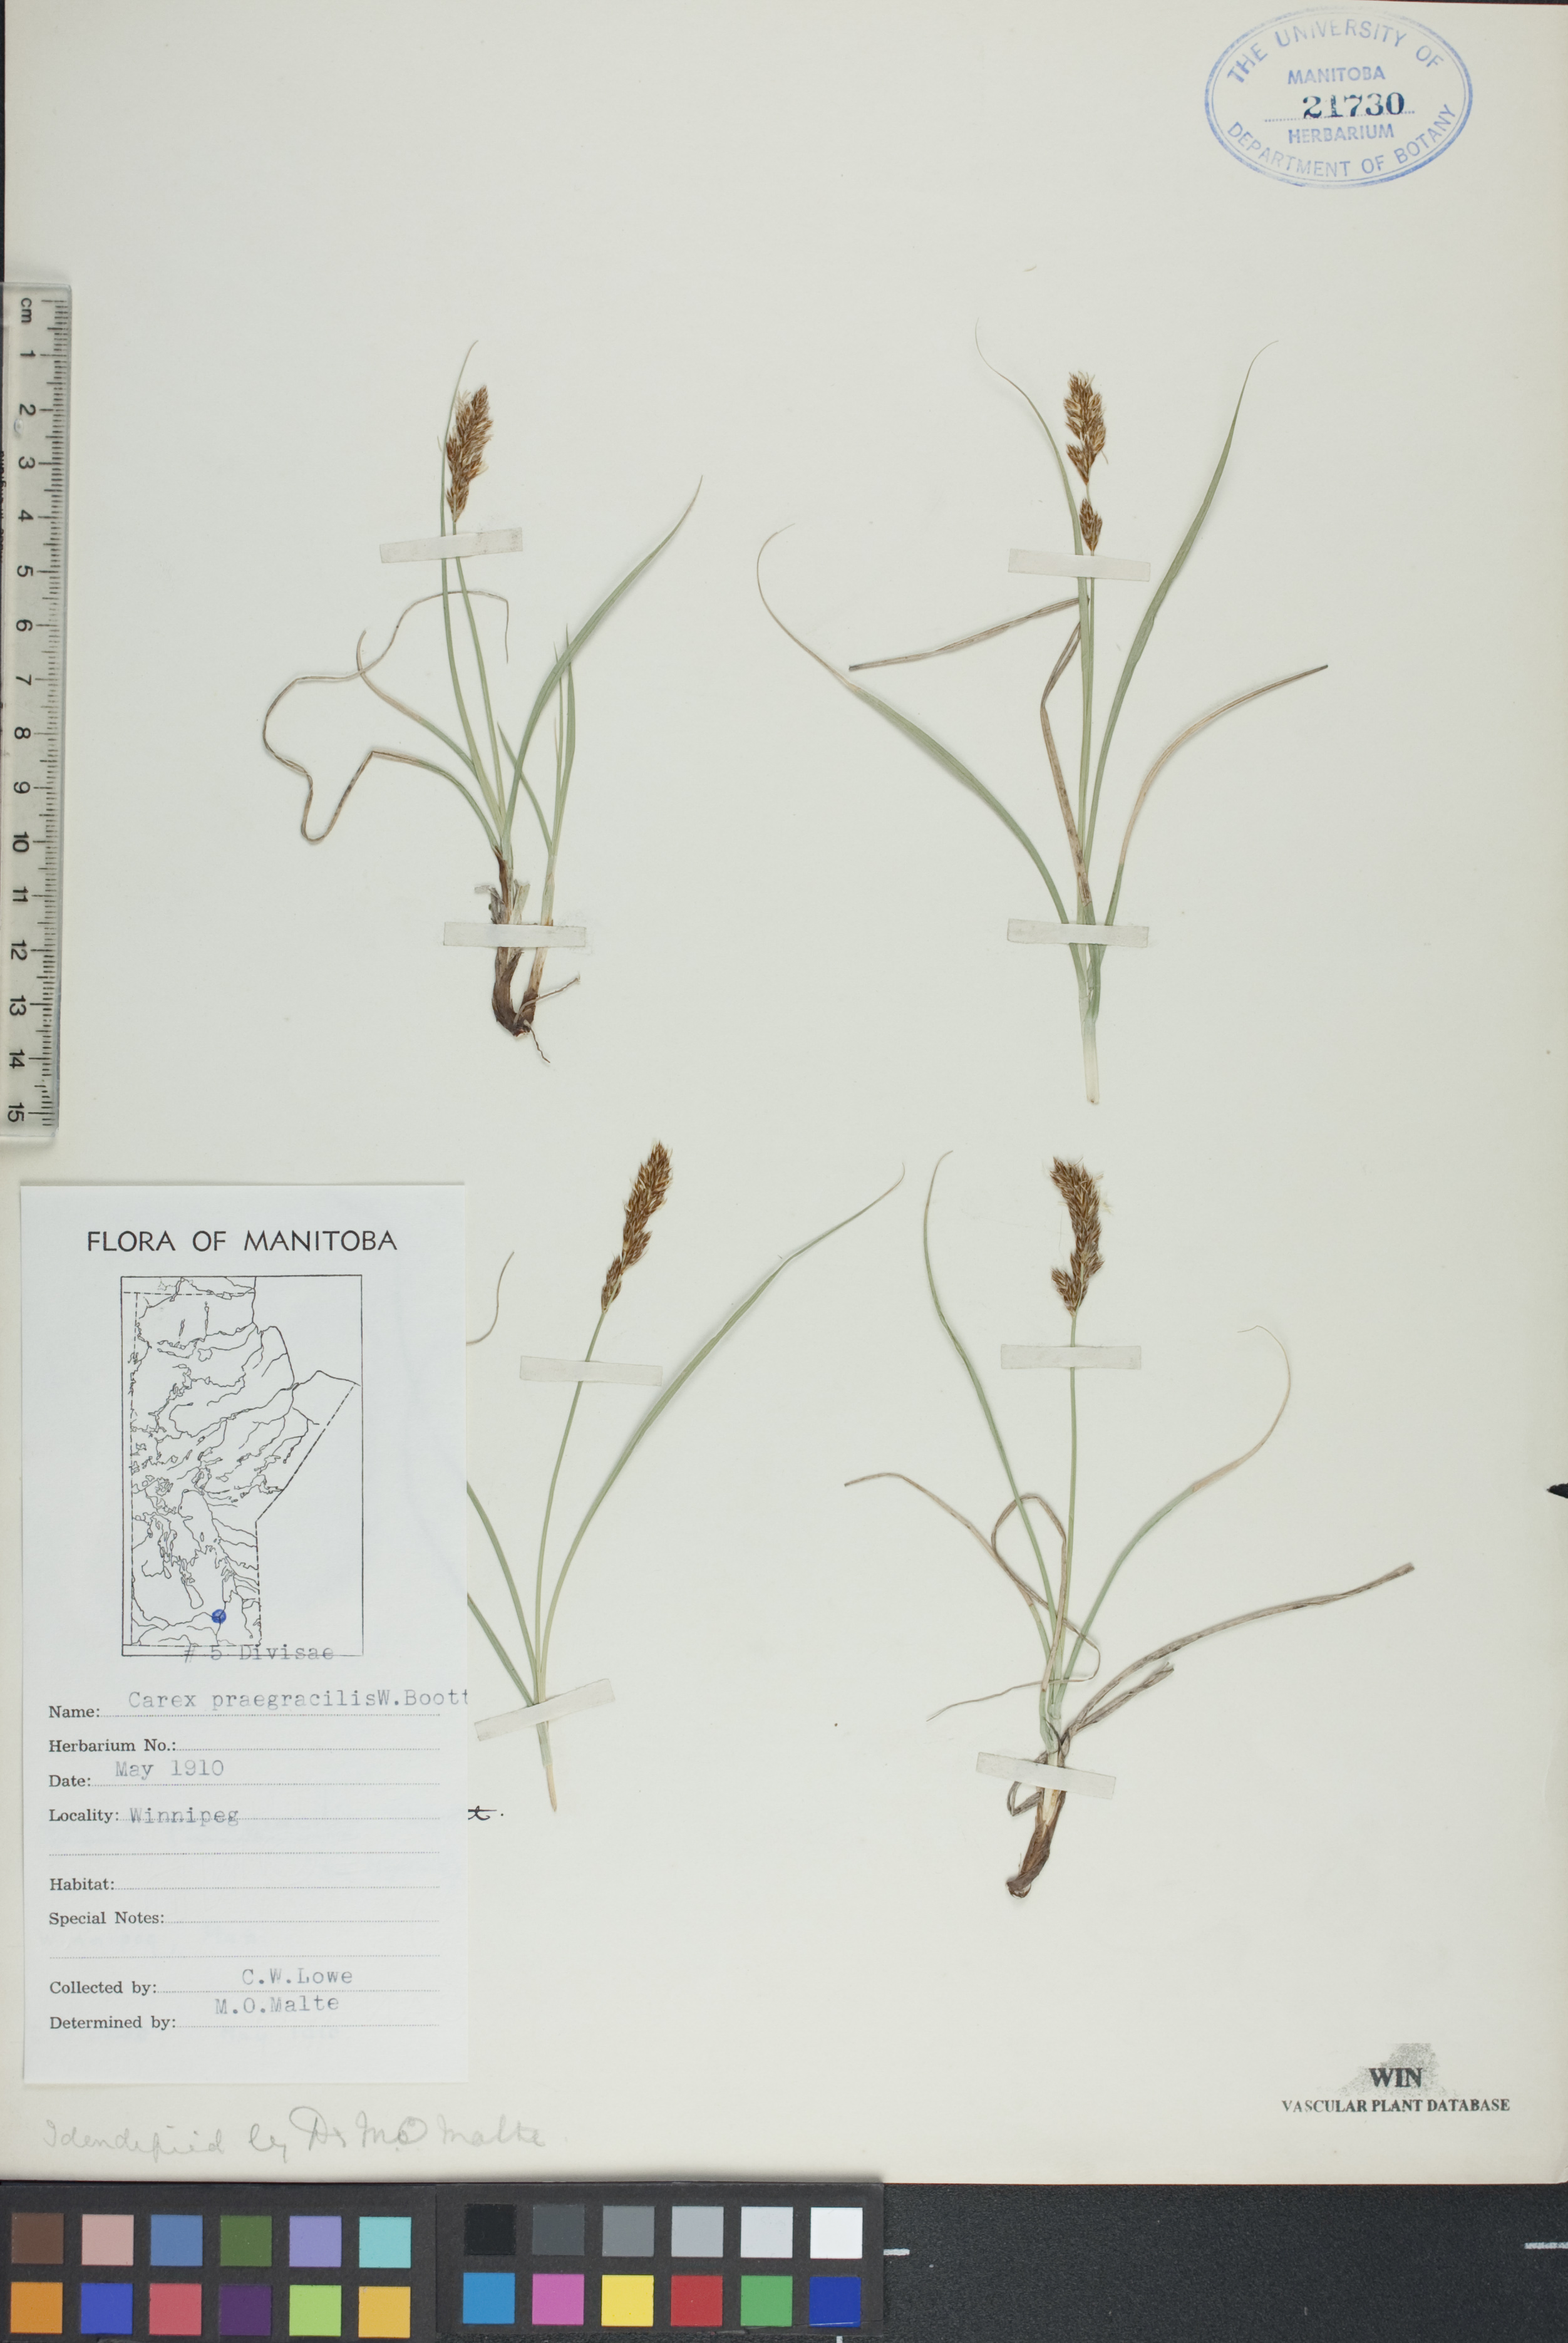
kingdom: Plantae
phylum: Tracheophyta
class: Liliopsida
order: Poales
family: Cyperaceae
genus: Carex
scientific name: Carex praegracilis
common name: Black creeper sedge
